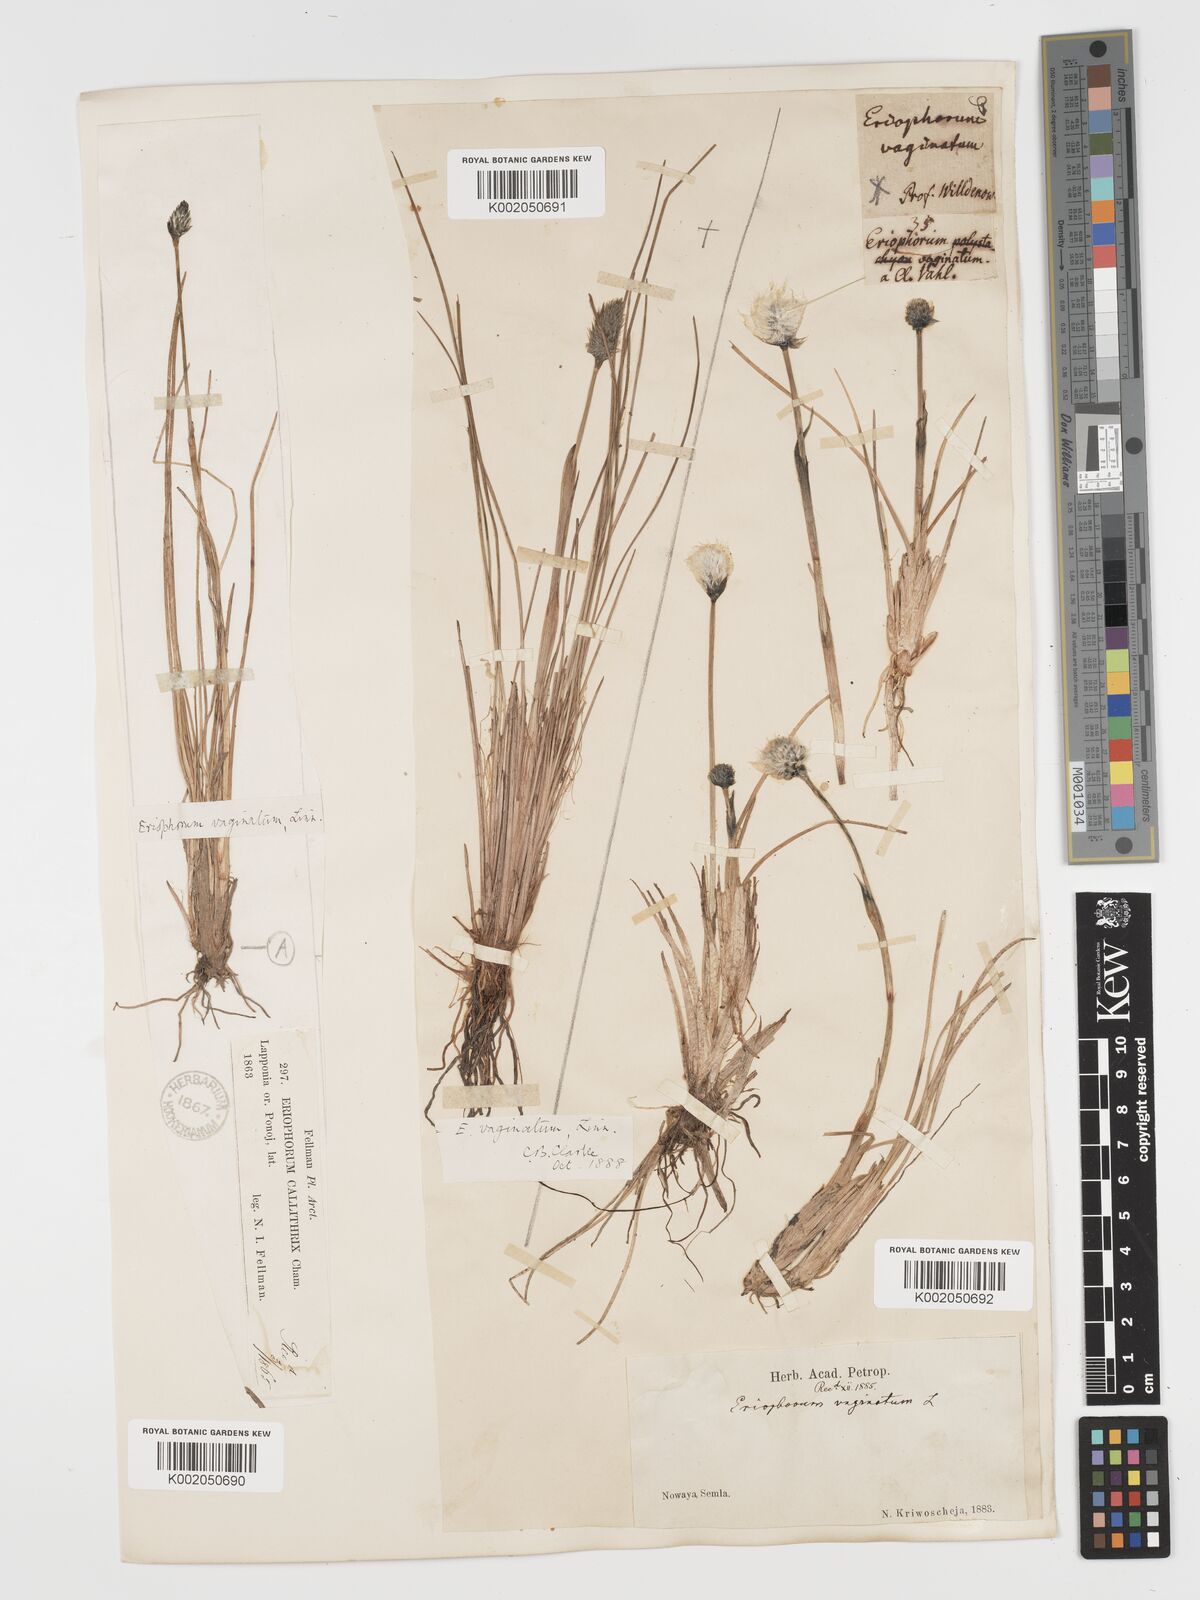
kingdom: Plantae
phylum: Tracheophyta
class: Liliopsida
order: Poales
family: Cyperaceae
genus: Eriophorum
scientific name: Eriophorum vaginatum
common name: Hare's-tail cottongrass
